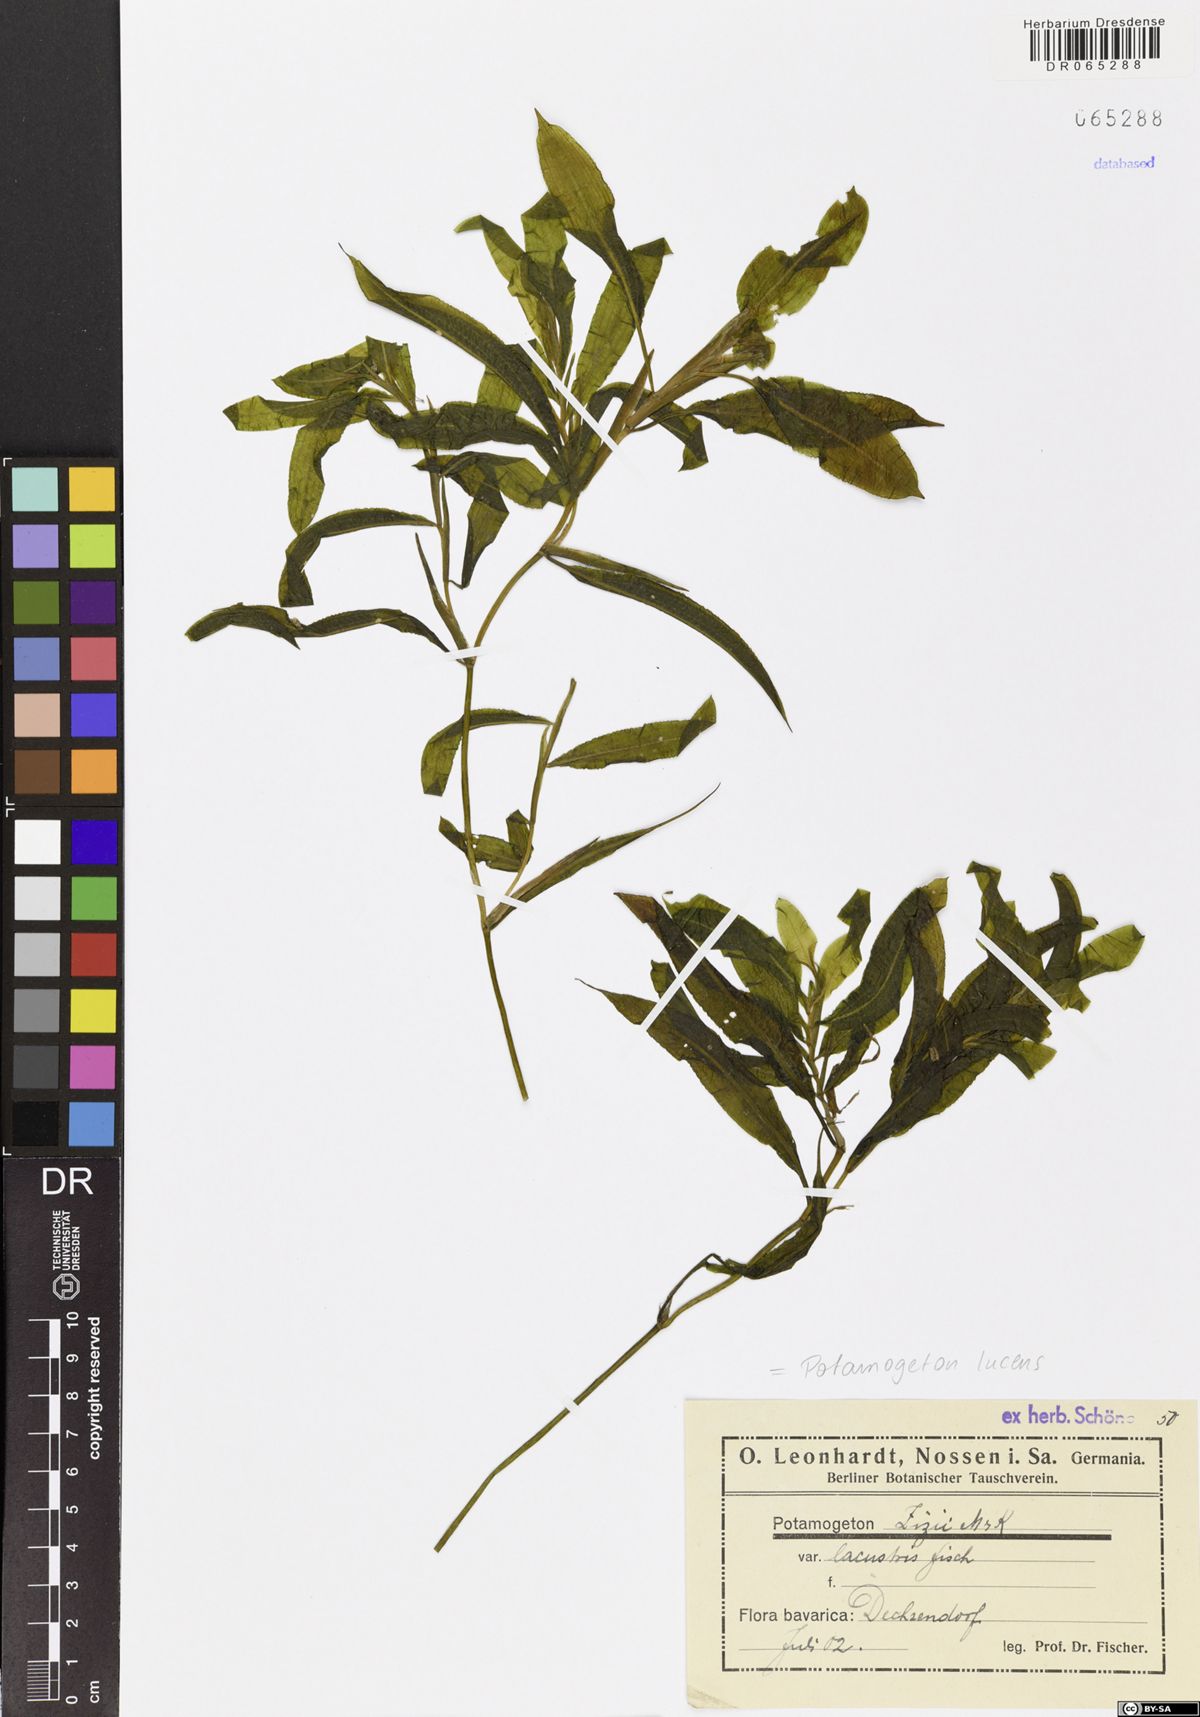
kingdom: Plantae
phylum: Tracheophyta
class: Liliopsida
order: Alismatales
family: Potamogetonaceae
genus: Potamogeton
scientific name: Potamogeton lucens
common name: Shining pondweed
